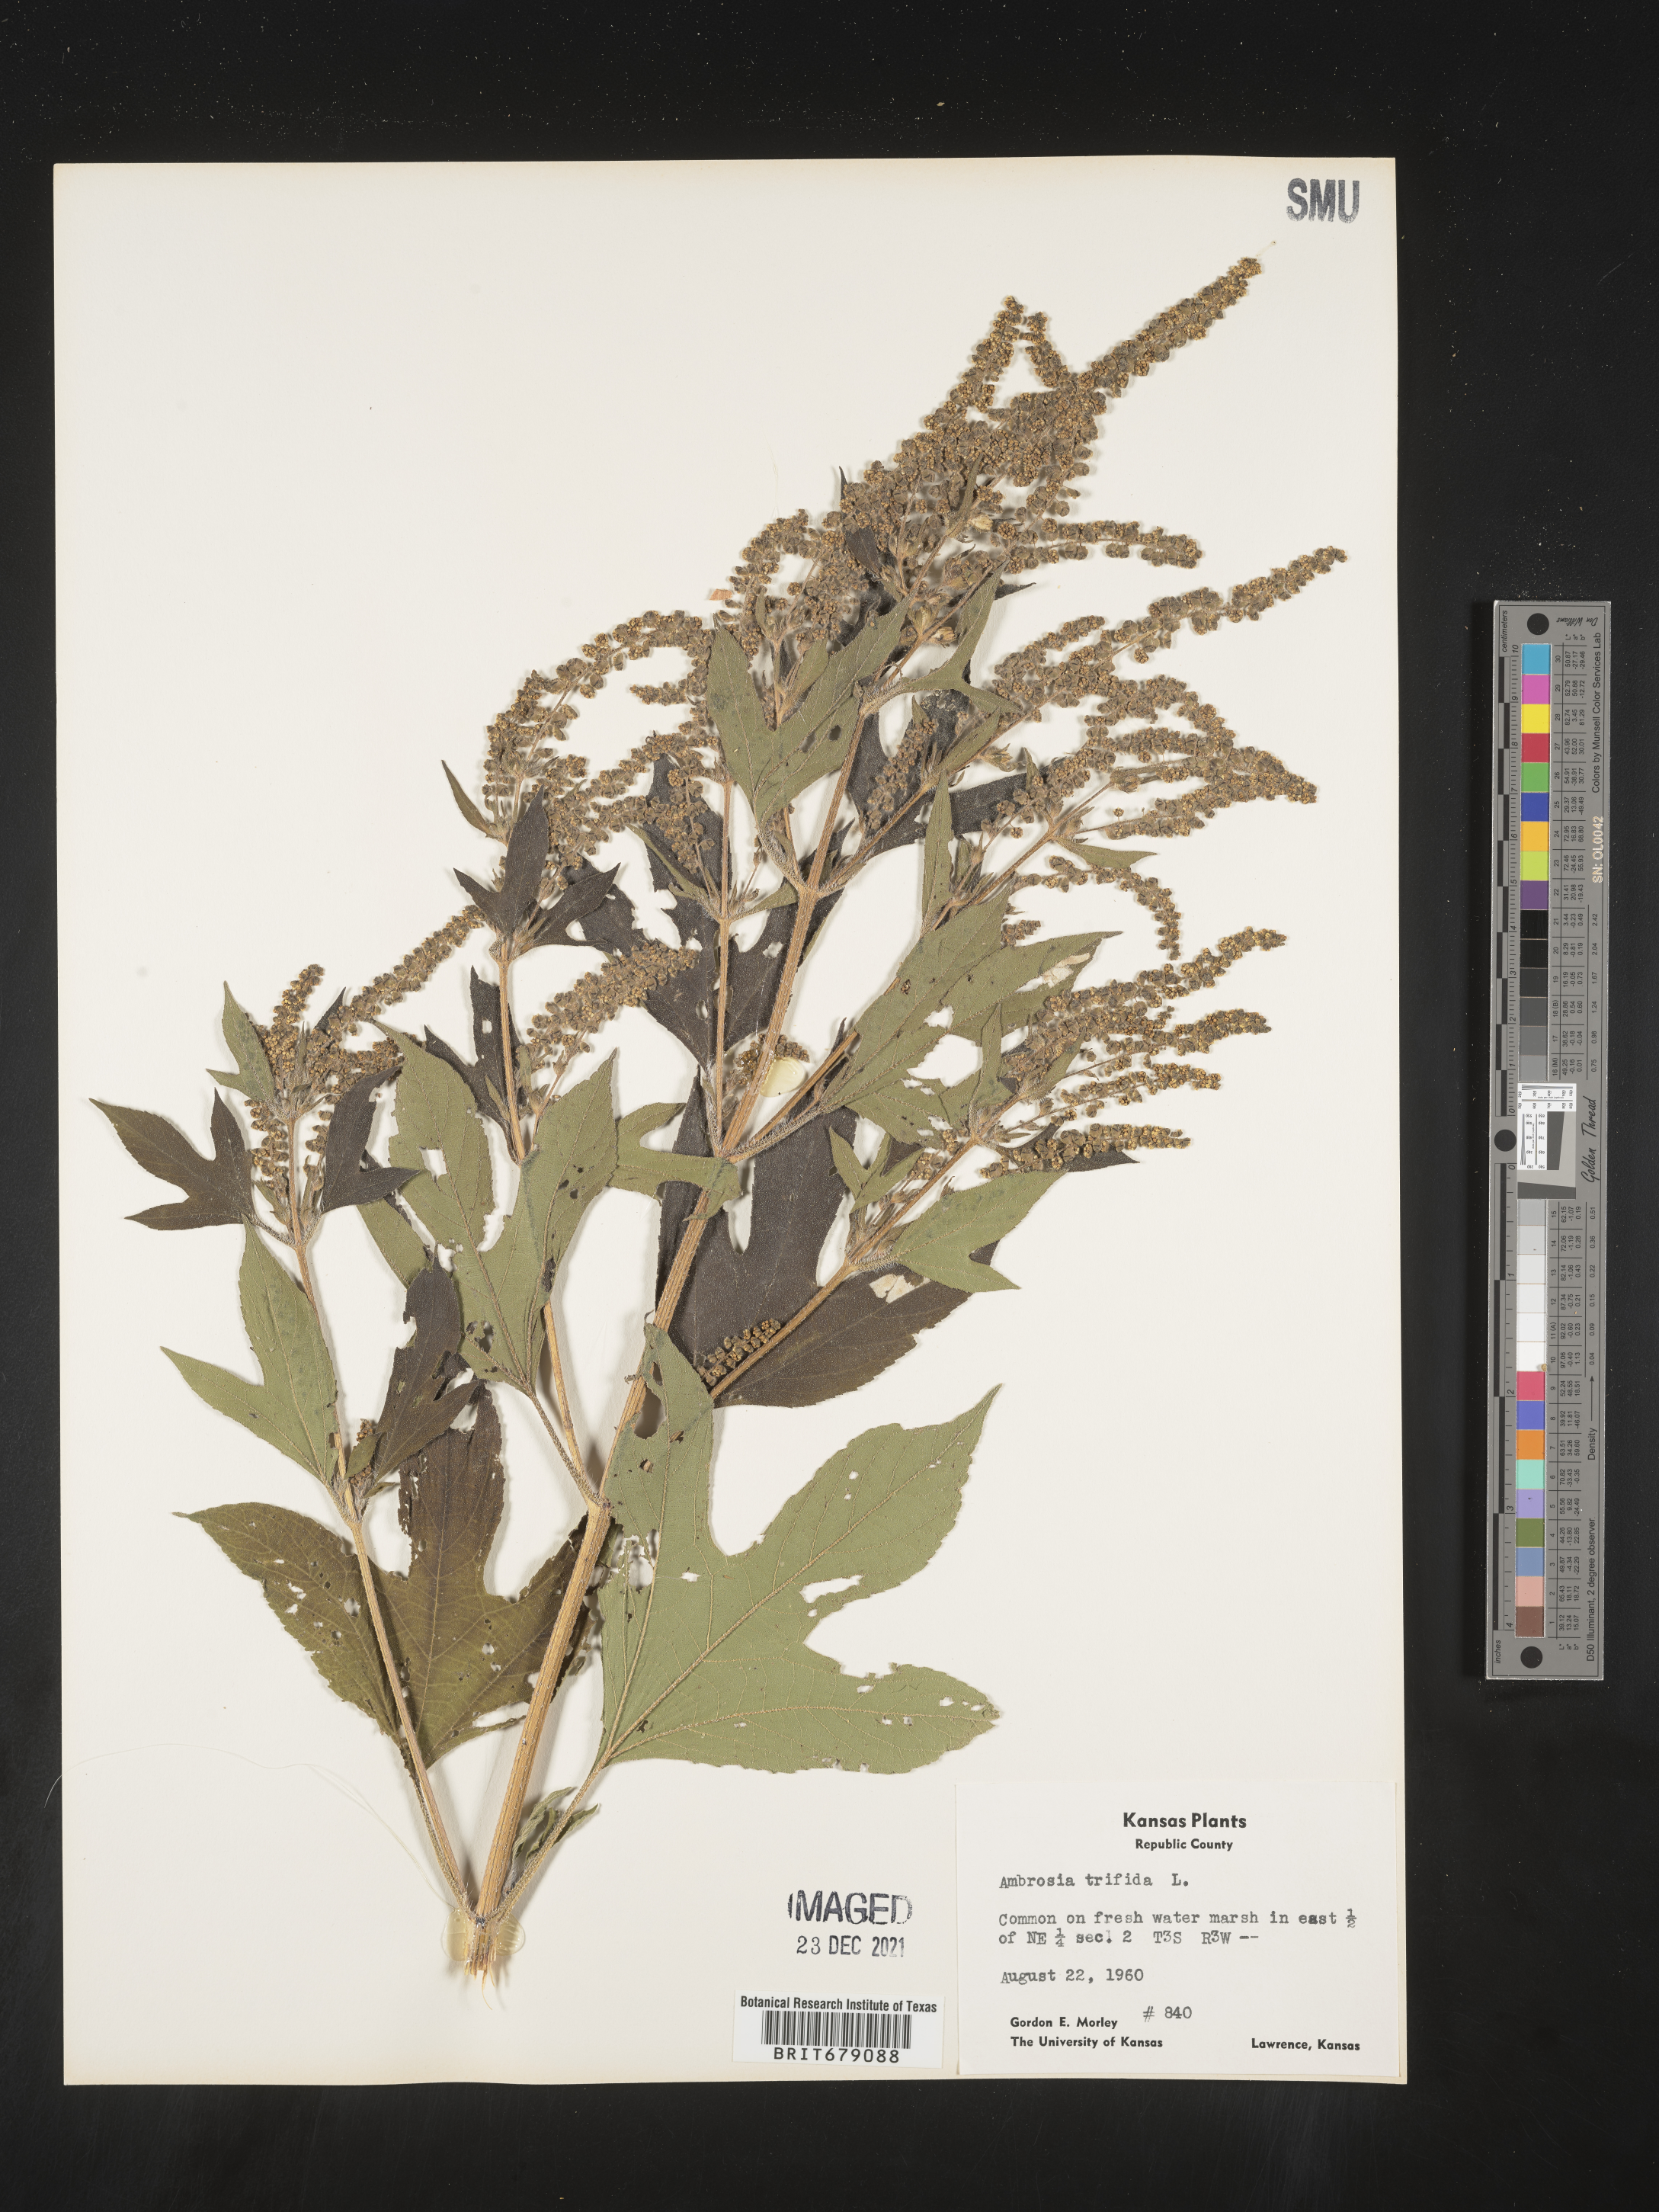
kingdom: Plantae
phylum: Tracheophyta
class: Magnoliopsida
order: Asterales
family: Asteraceae
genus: Ambrosia
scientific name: Ambrosia trifida
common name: Giant ragweed
